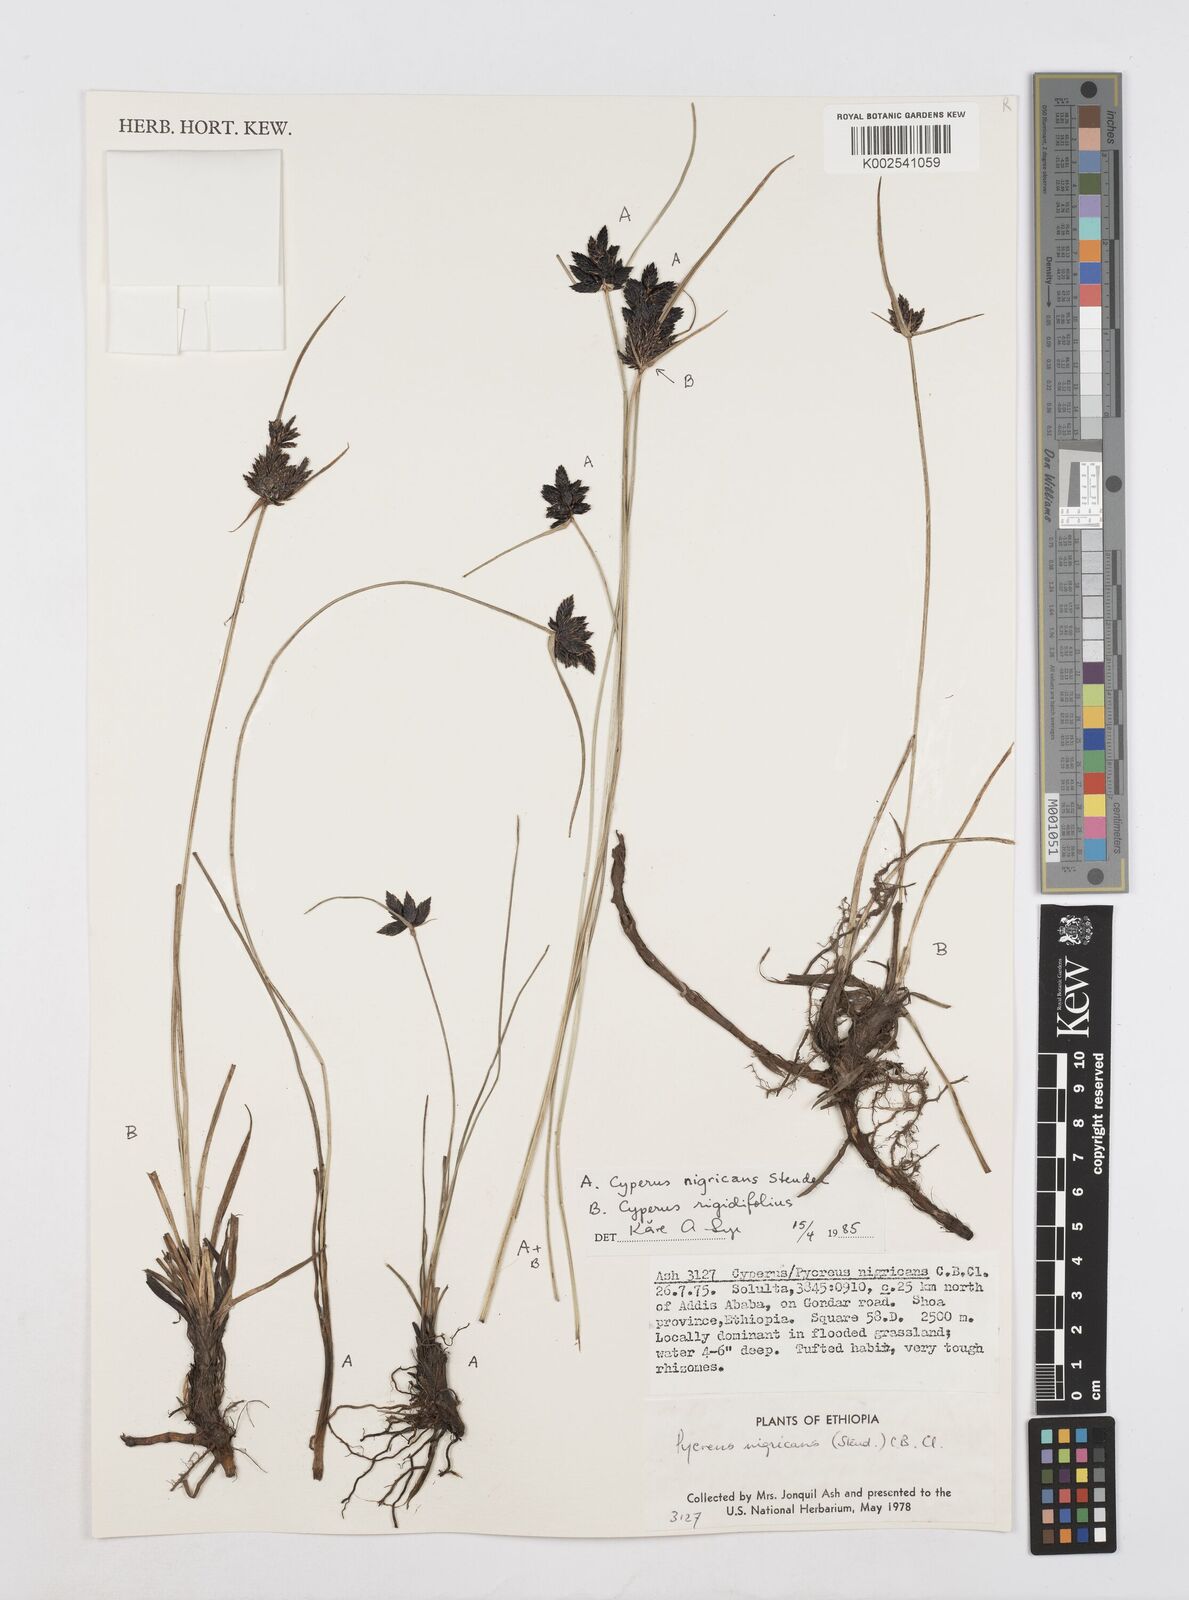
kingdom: Plantae
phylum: Tracheophyta
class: Liliopsida
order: Poales
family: Cyperaceae
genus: Cyperus
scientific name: Cyperus nigricans
